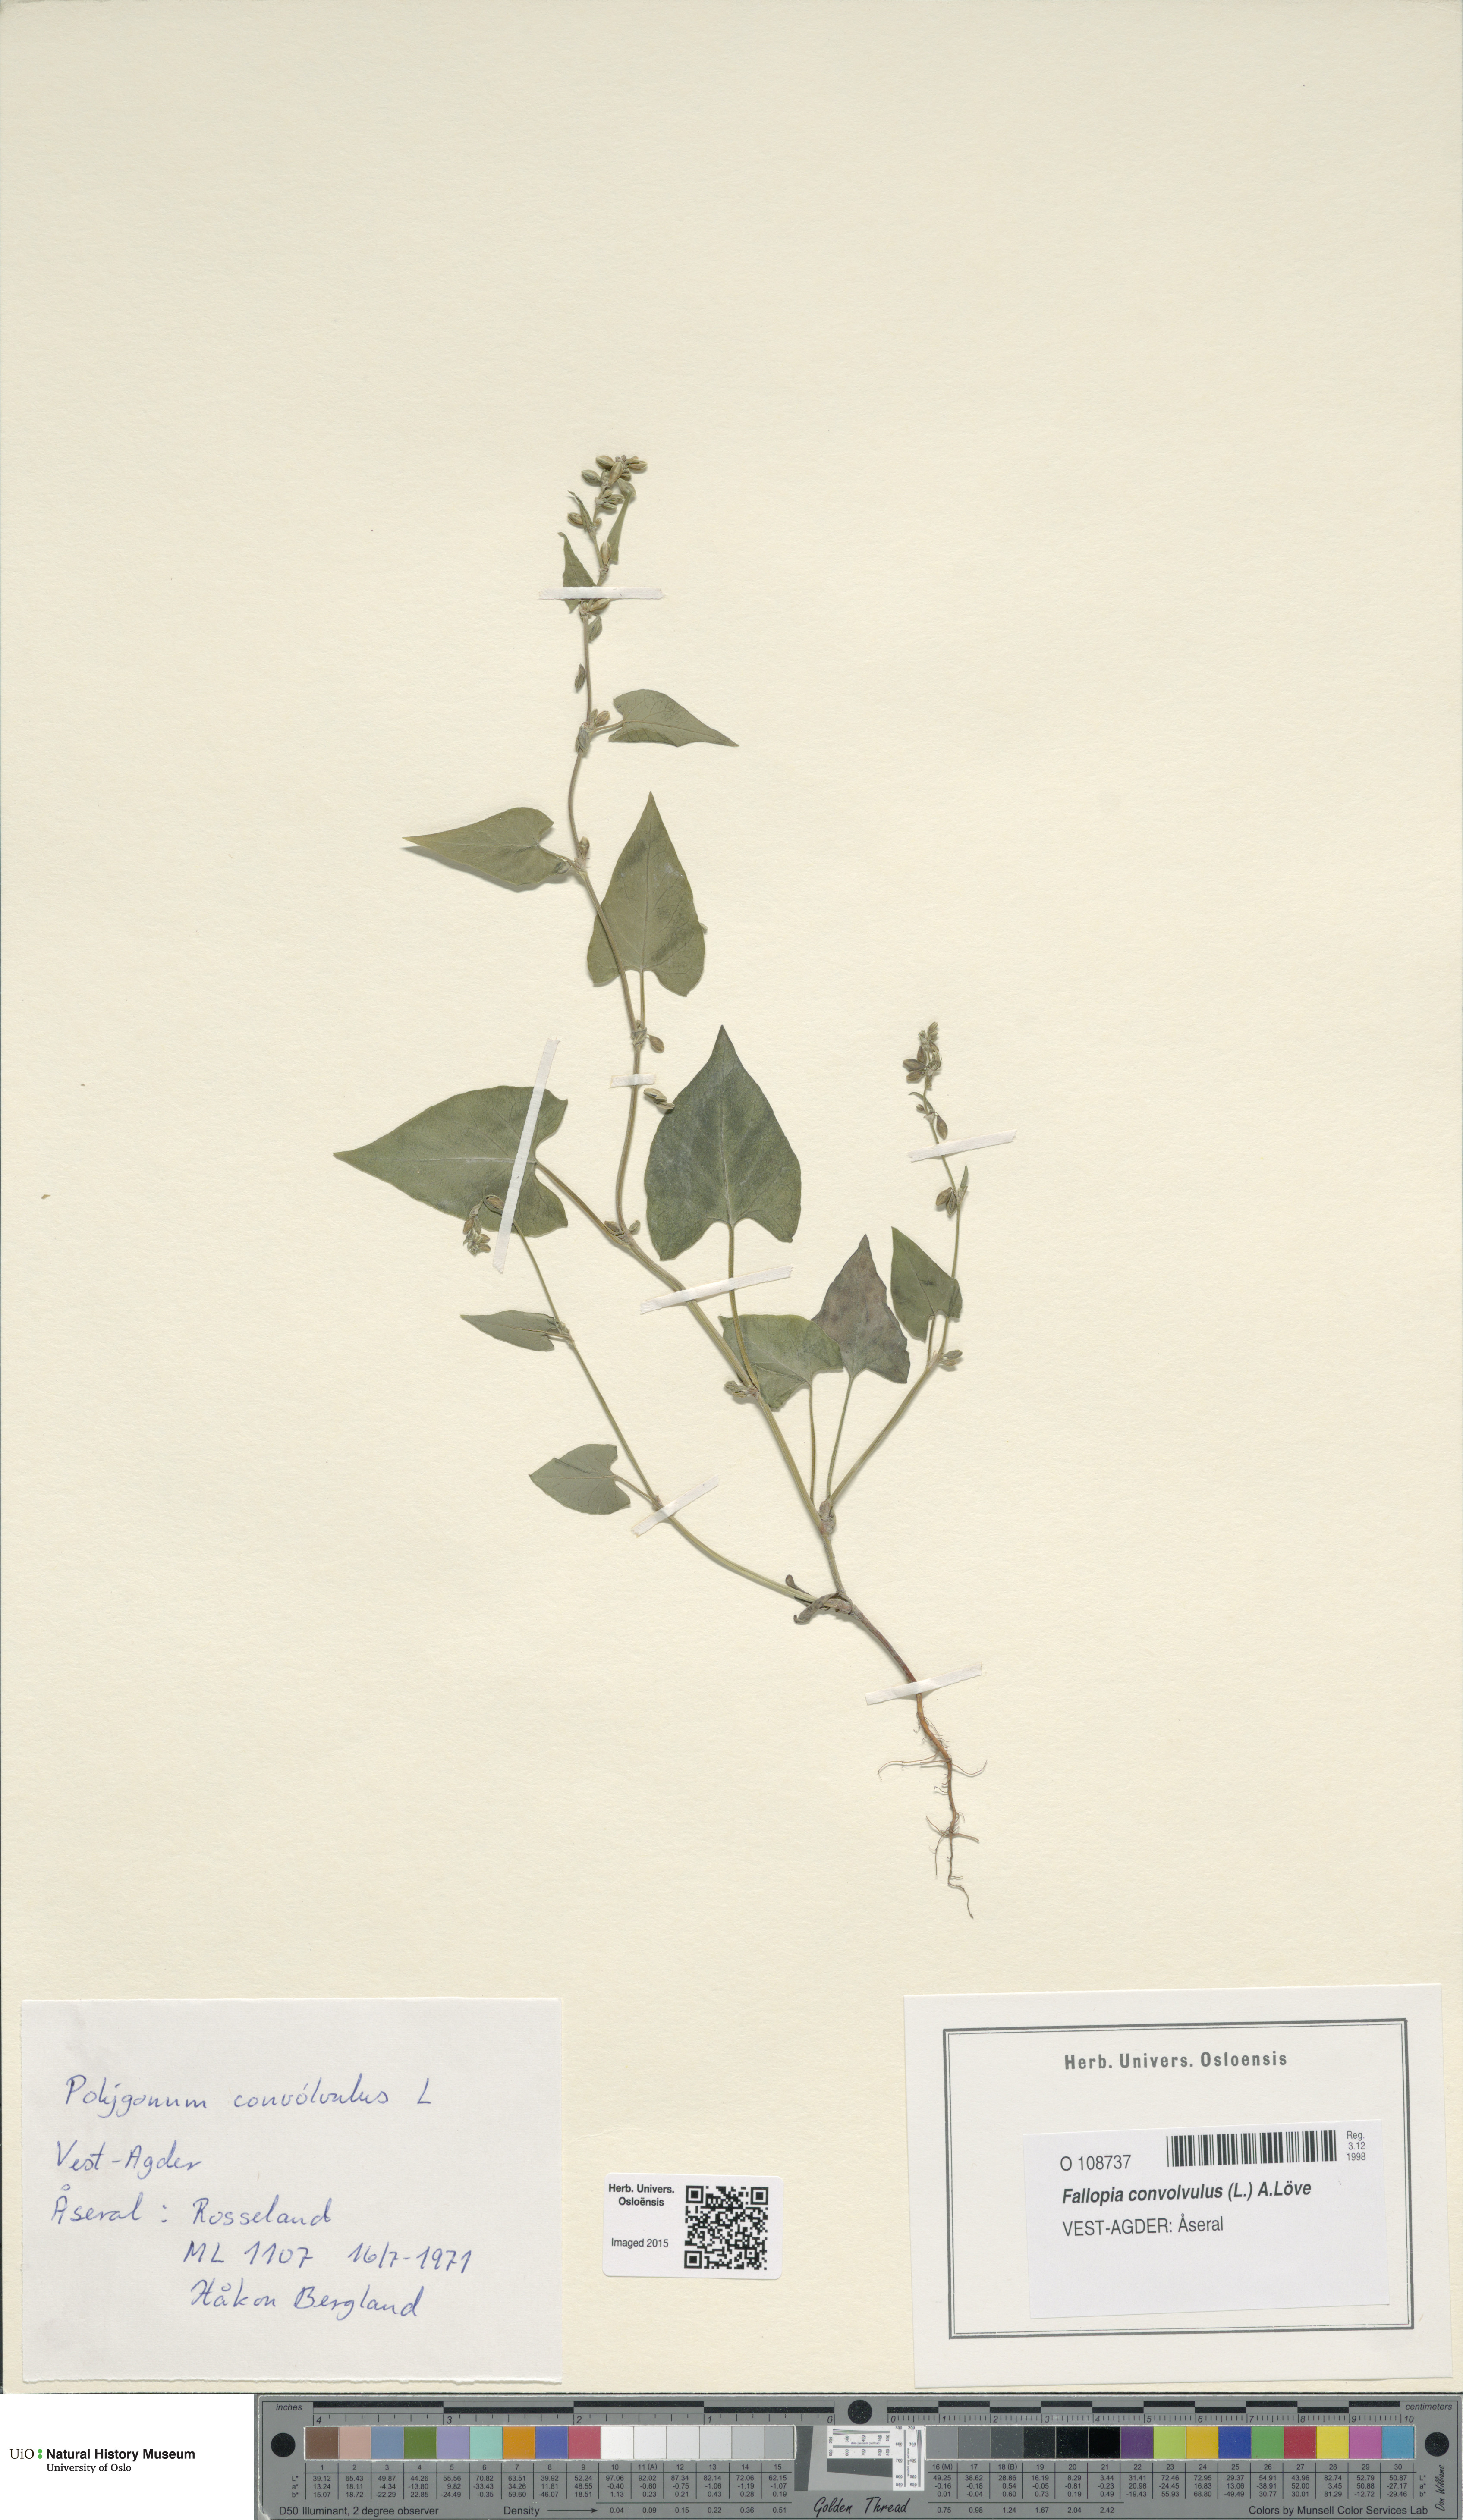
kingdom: Plantae
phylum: Tracheophyta
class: Magnoliopsida
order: Caryophyllales
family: Polygonaceae
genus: Fallopia
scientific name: Fallopia convolvulus
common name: Black bindweed
